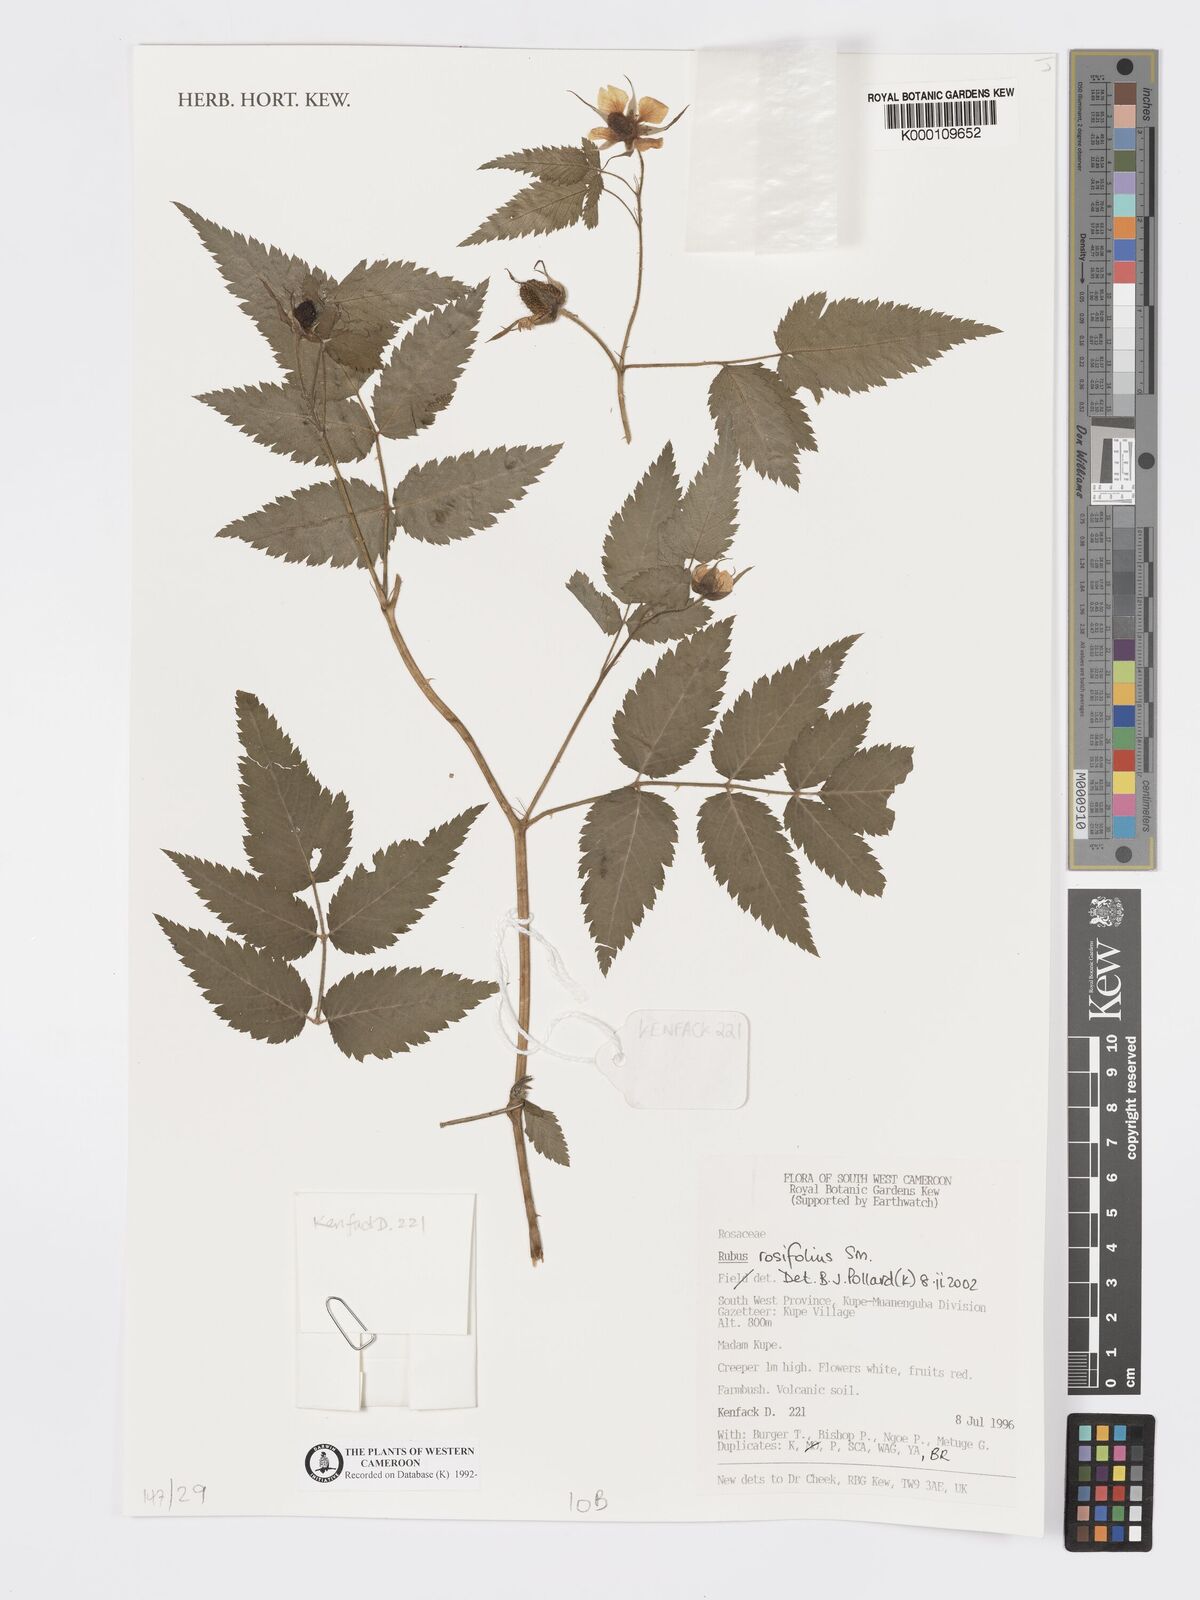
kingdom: Plantae
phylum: Tracheophyta
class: Magnoliopsida
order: Rosales
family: Rosaceae
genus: Rubus
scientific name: Rubus rosifolius
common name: Roseleaf raspberry
